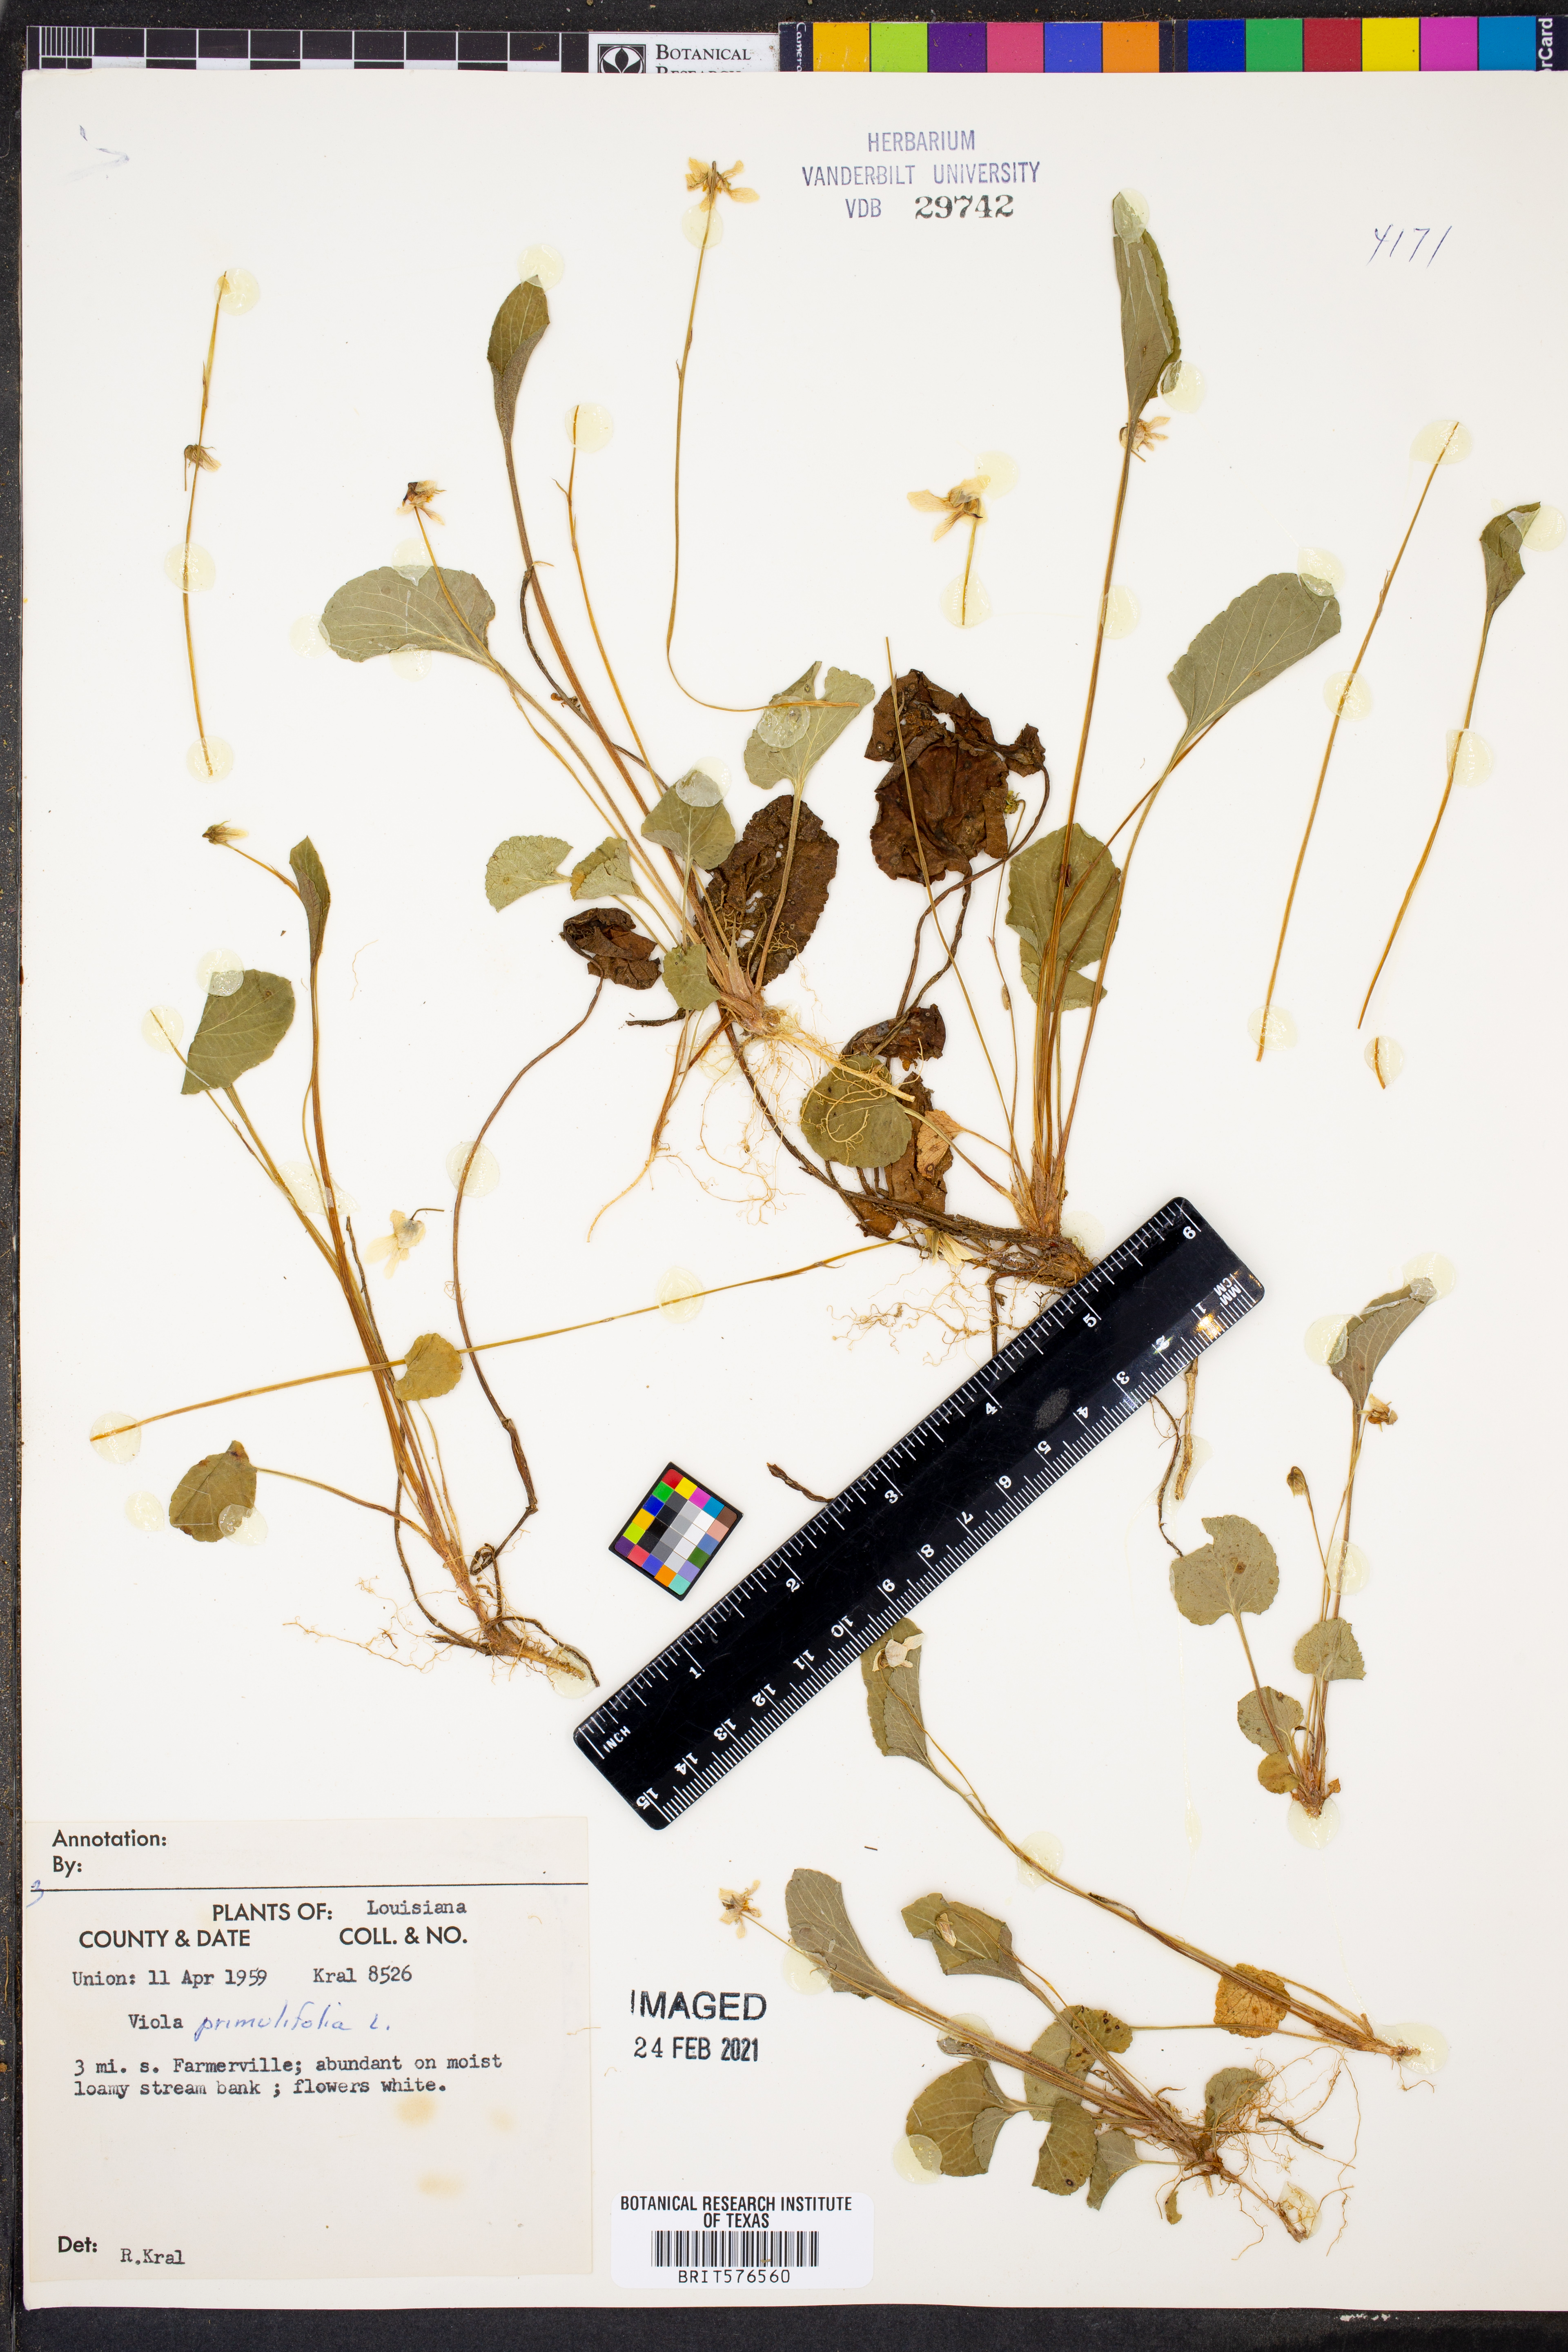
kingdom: Plantae
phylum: Tracheophyta
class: Magnoliopsida
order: Malpighiales
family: Violaceae
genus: Viola
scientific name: Viola primulifolia
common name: Primrose-leaf violet
